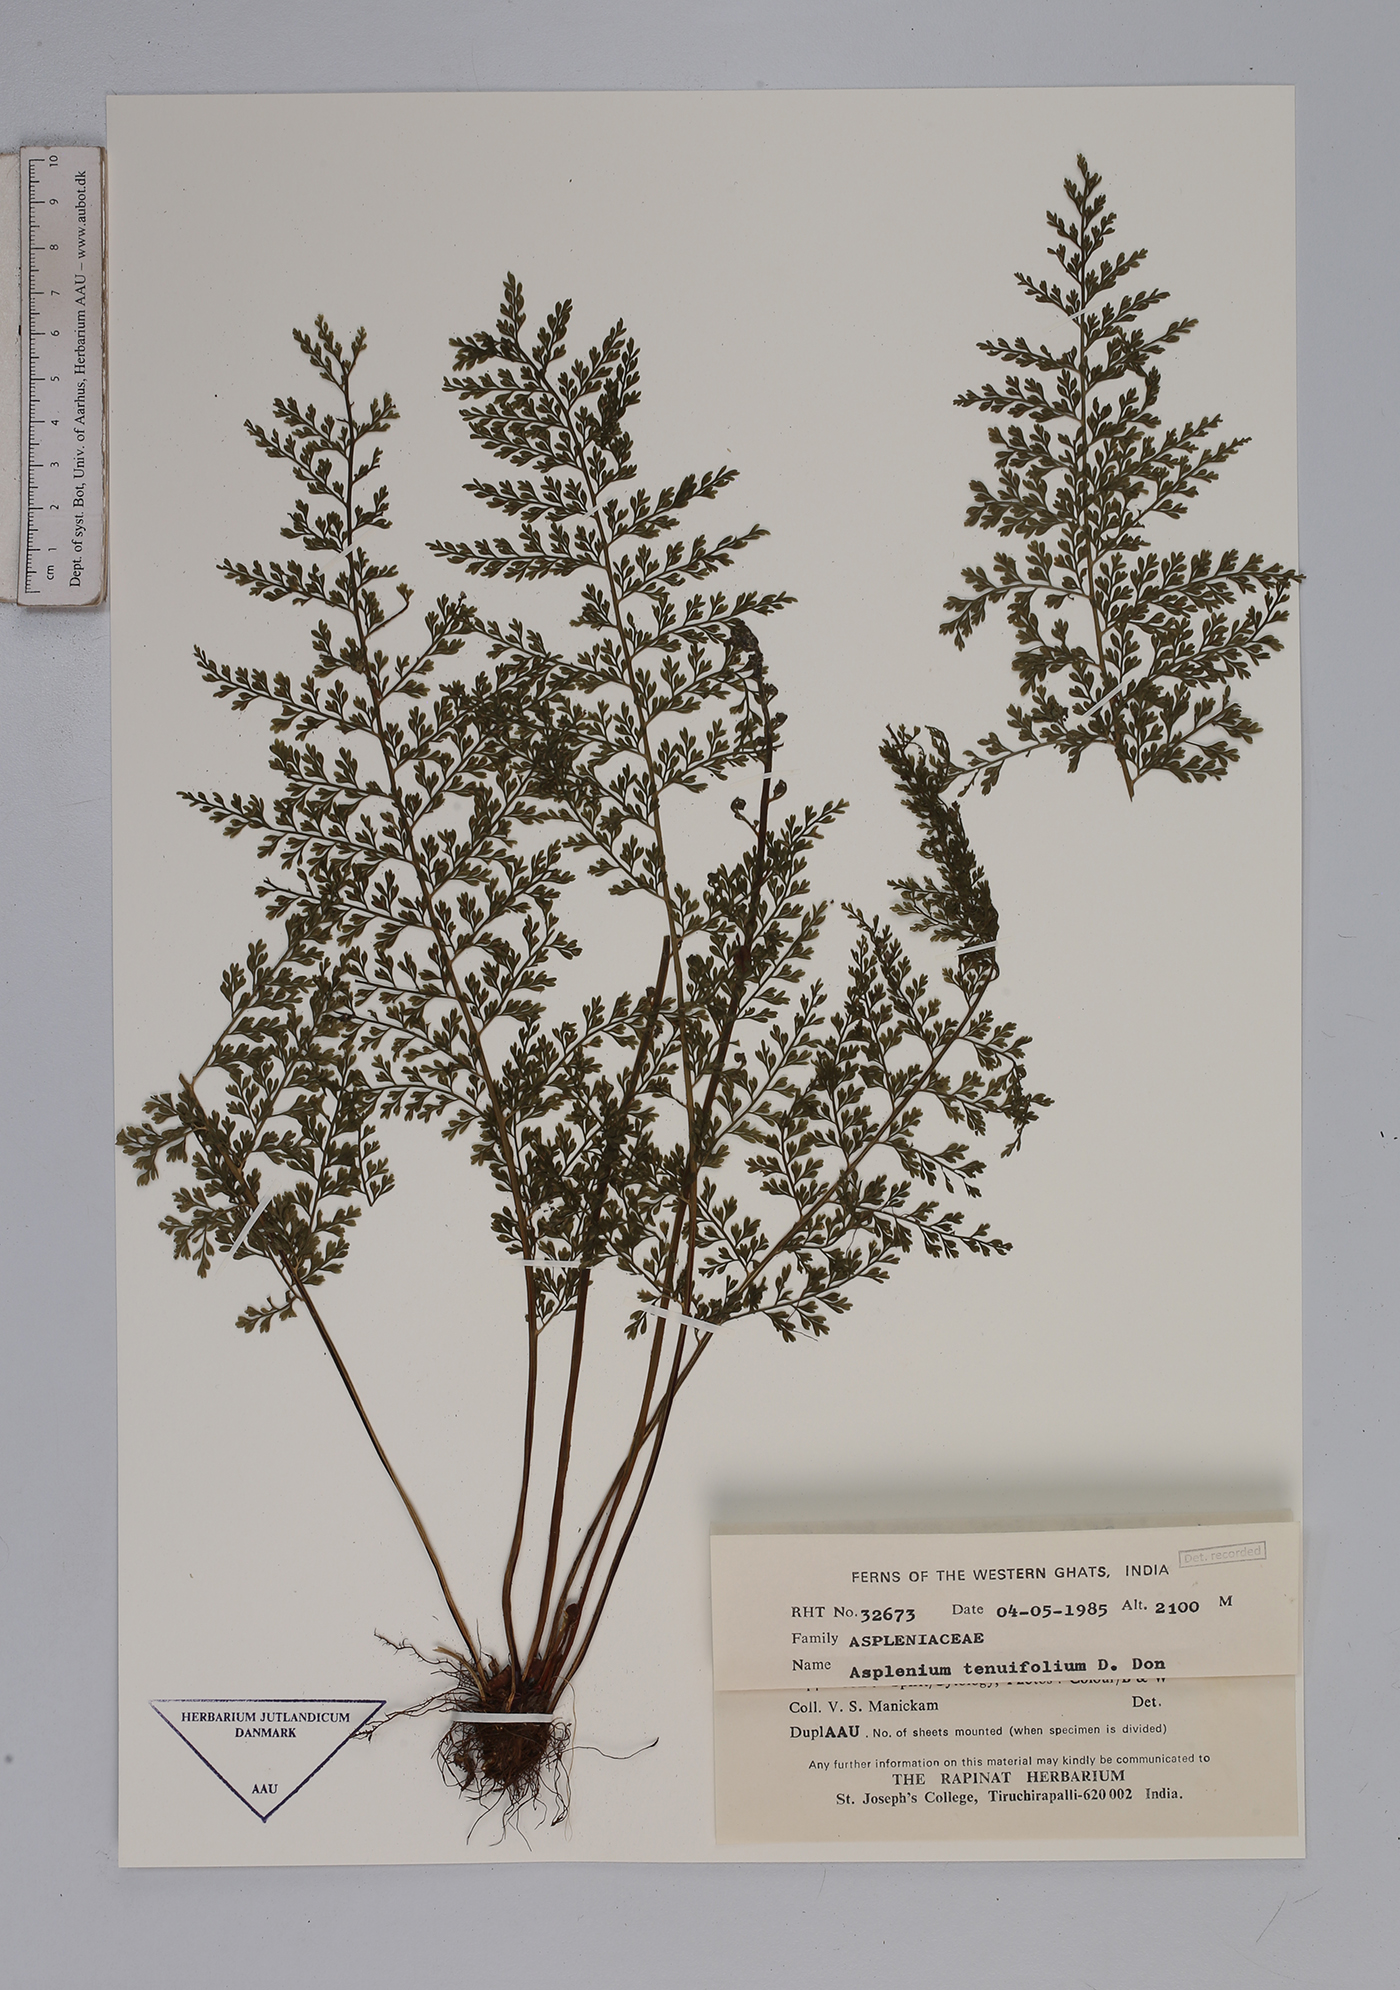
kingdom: Plantae
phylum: Tracheophyta
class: Polypodiopsida
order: Polypodiales
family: Aspleniaceae
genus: Asplenium
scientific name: Asplenium tenuifolium
